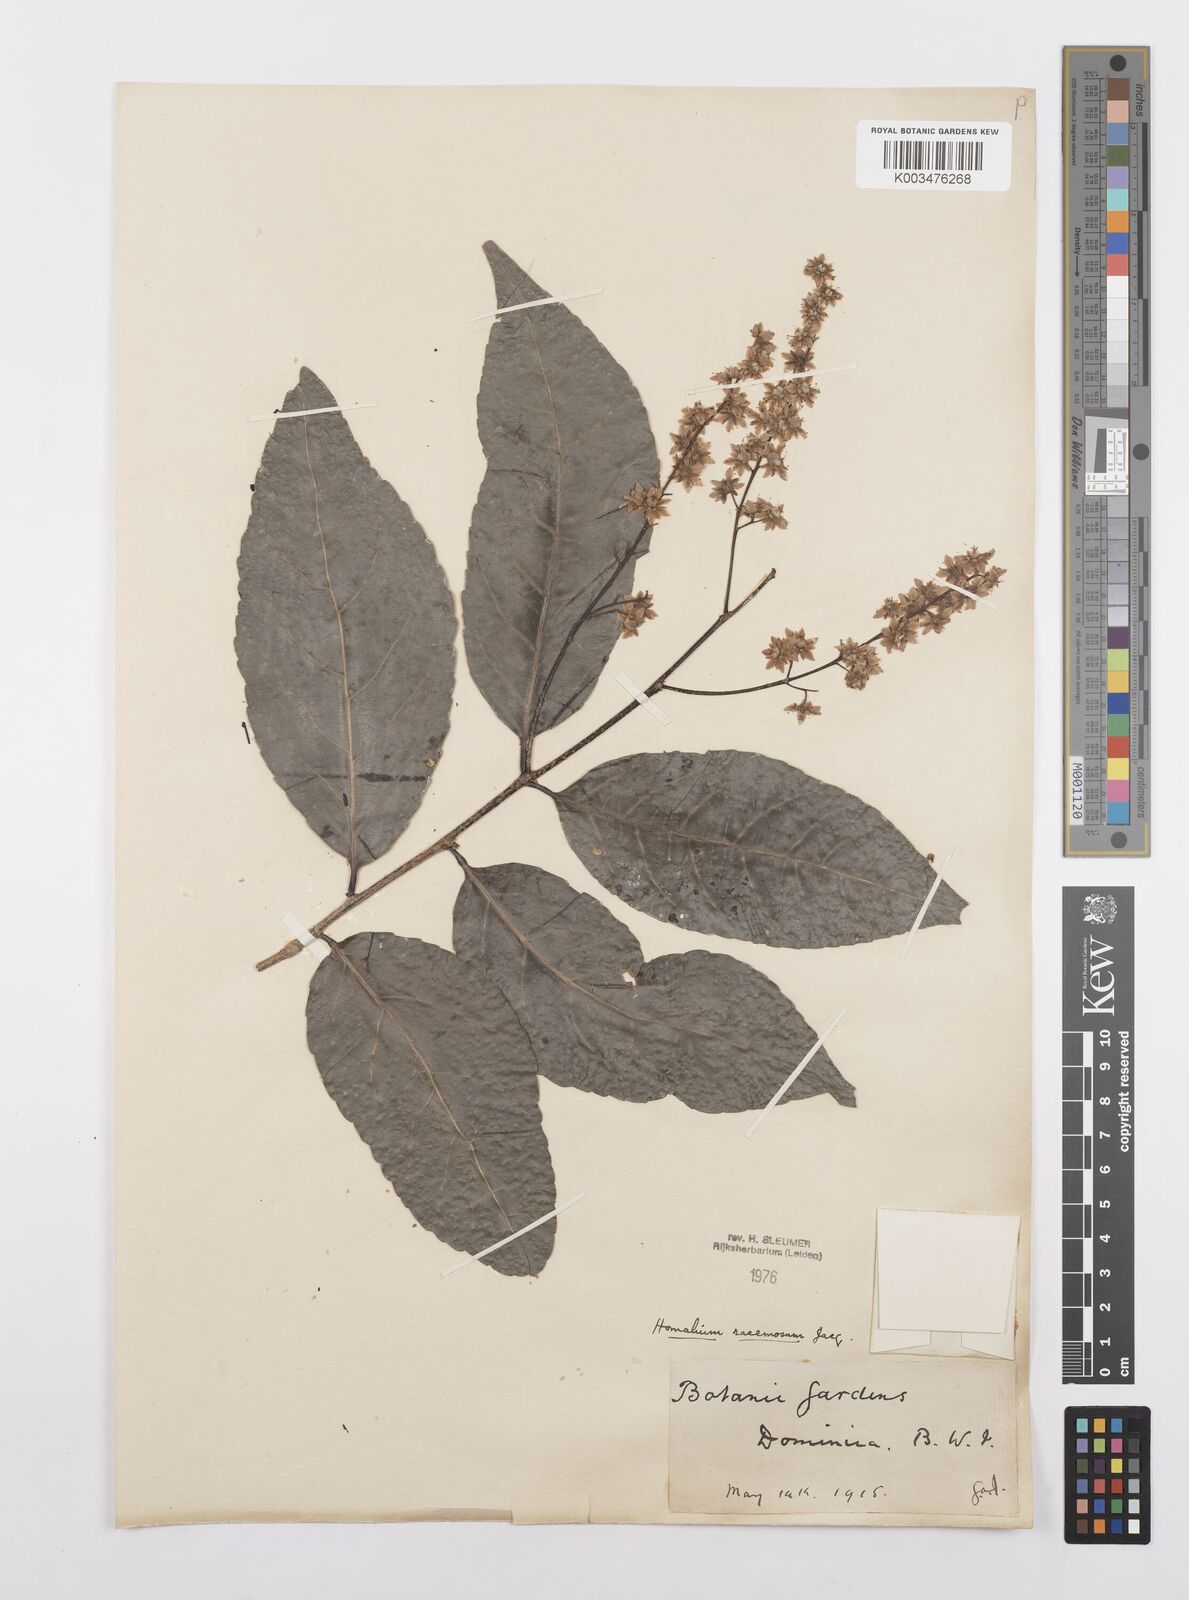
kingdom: Plantae
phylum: Tracheophyta
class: Magnoliopsida
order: Malpighiales
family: Salicaceae
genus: Homalium
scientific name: Homalium racemosum
